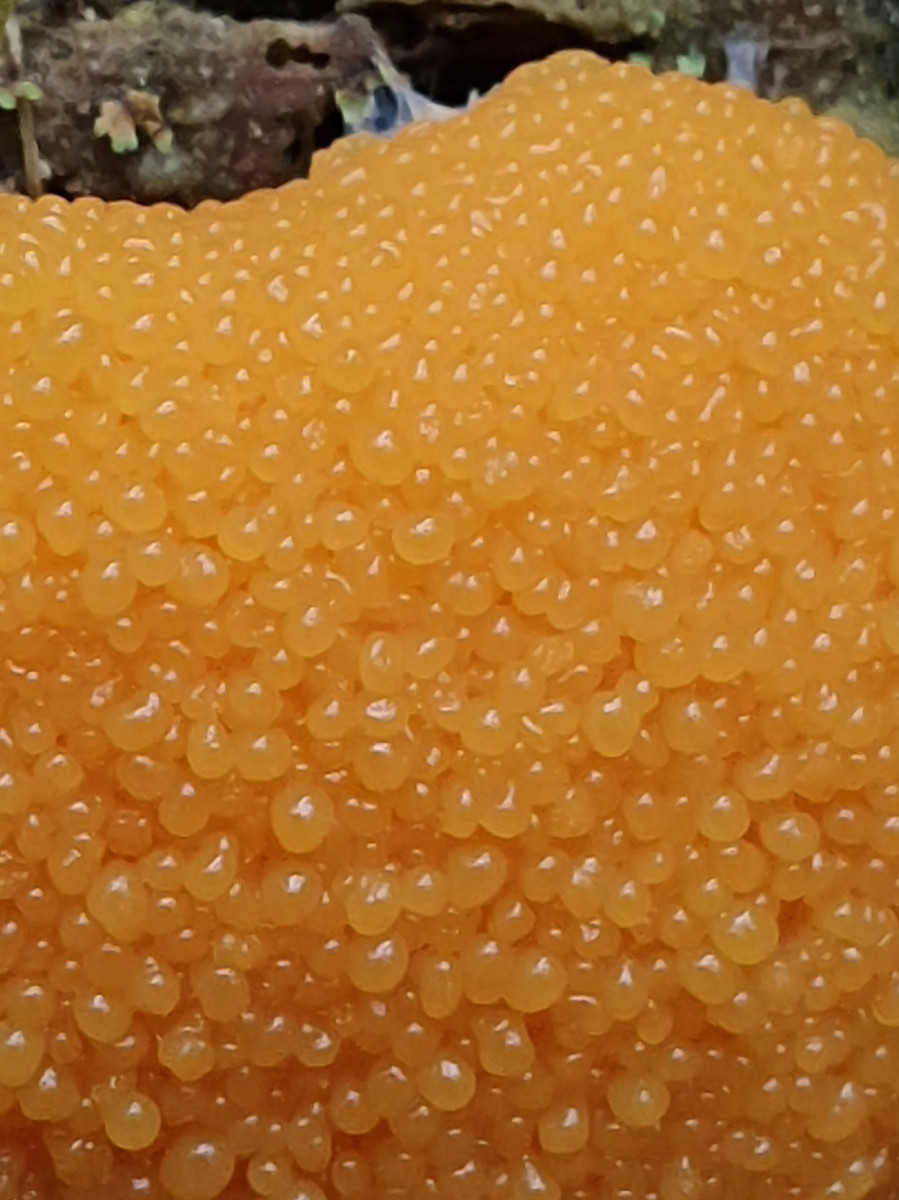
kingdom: Protozoa
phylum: Mycetozoa
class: Myxomycetes
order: Cribrariales
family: Tubiferaceae
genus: Tubifera
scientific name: Tubifera ferruginosa
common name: kanel-støvrør
